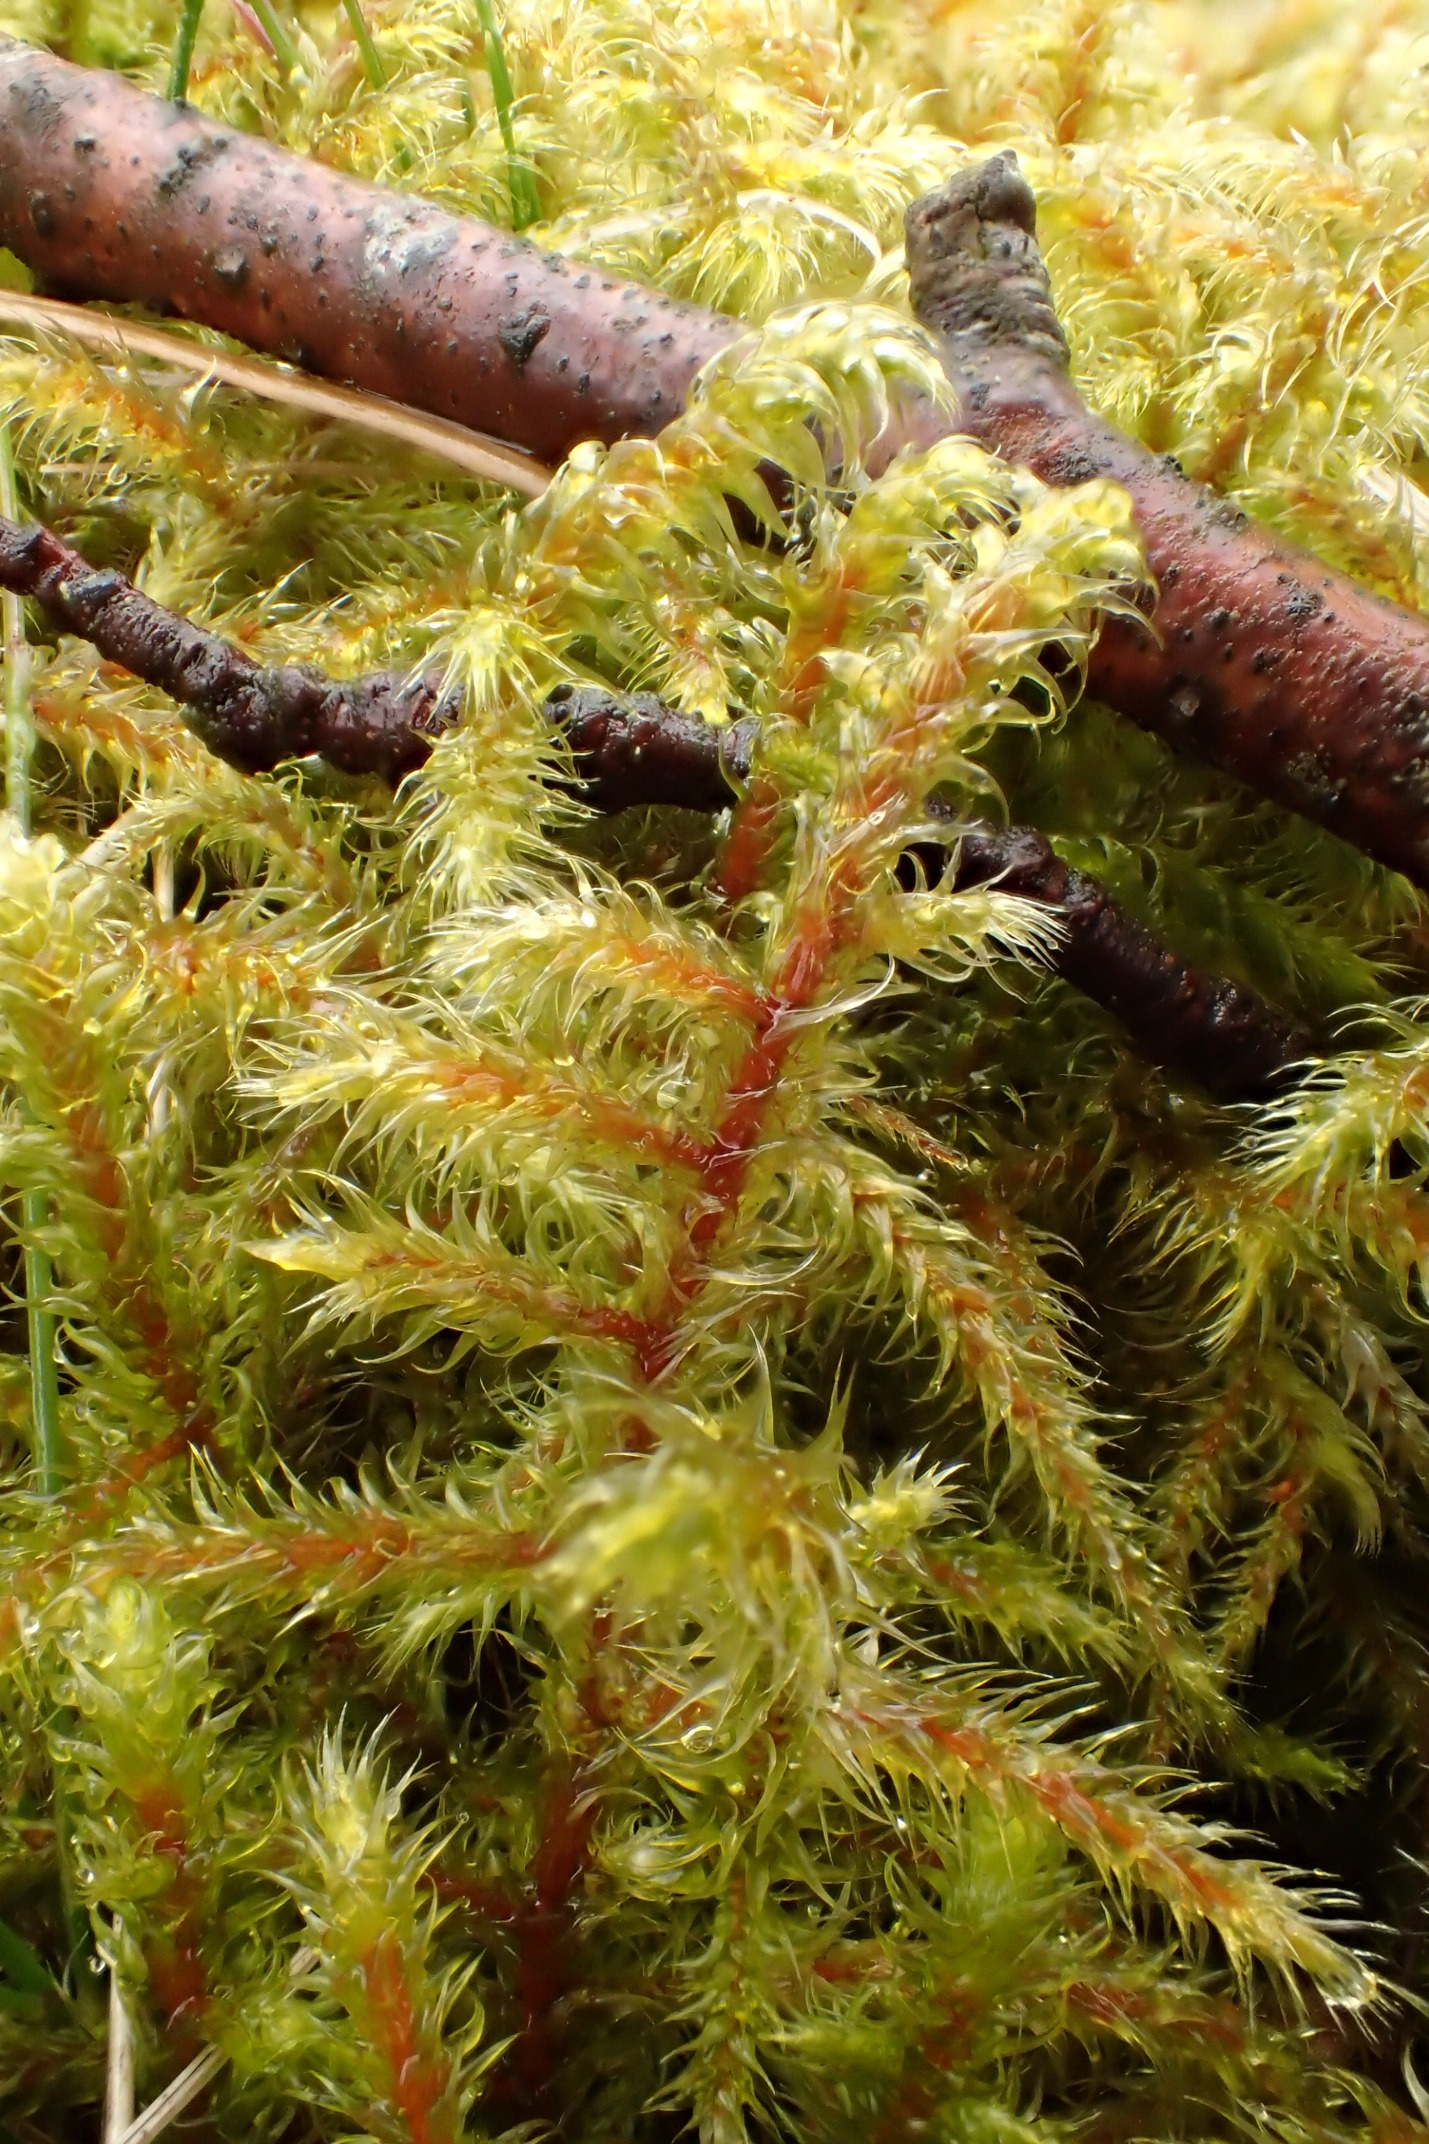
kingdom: Plantae
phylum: Bryophyta
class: Bryopsida
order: Hypnales
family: Hylocomiaceae
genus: Rhytidiadelphus
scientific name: Rhytidiadelphus loreus
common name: Ulvefod-kransemos
